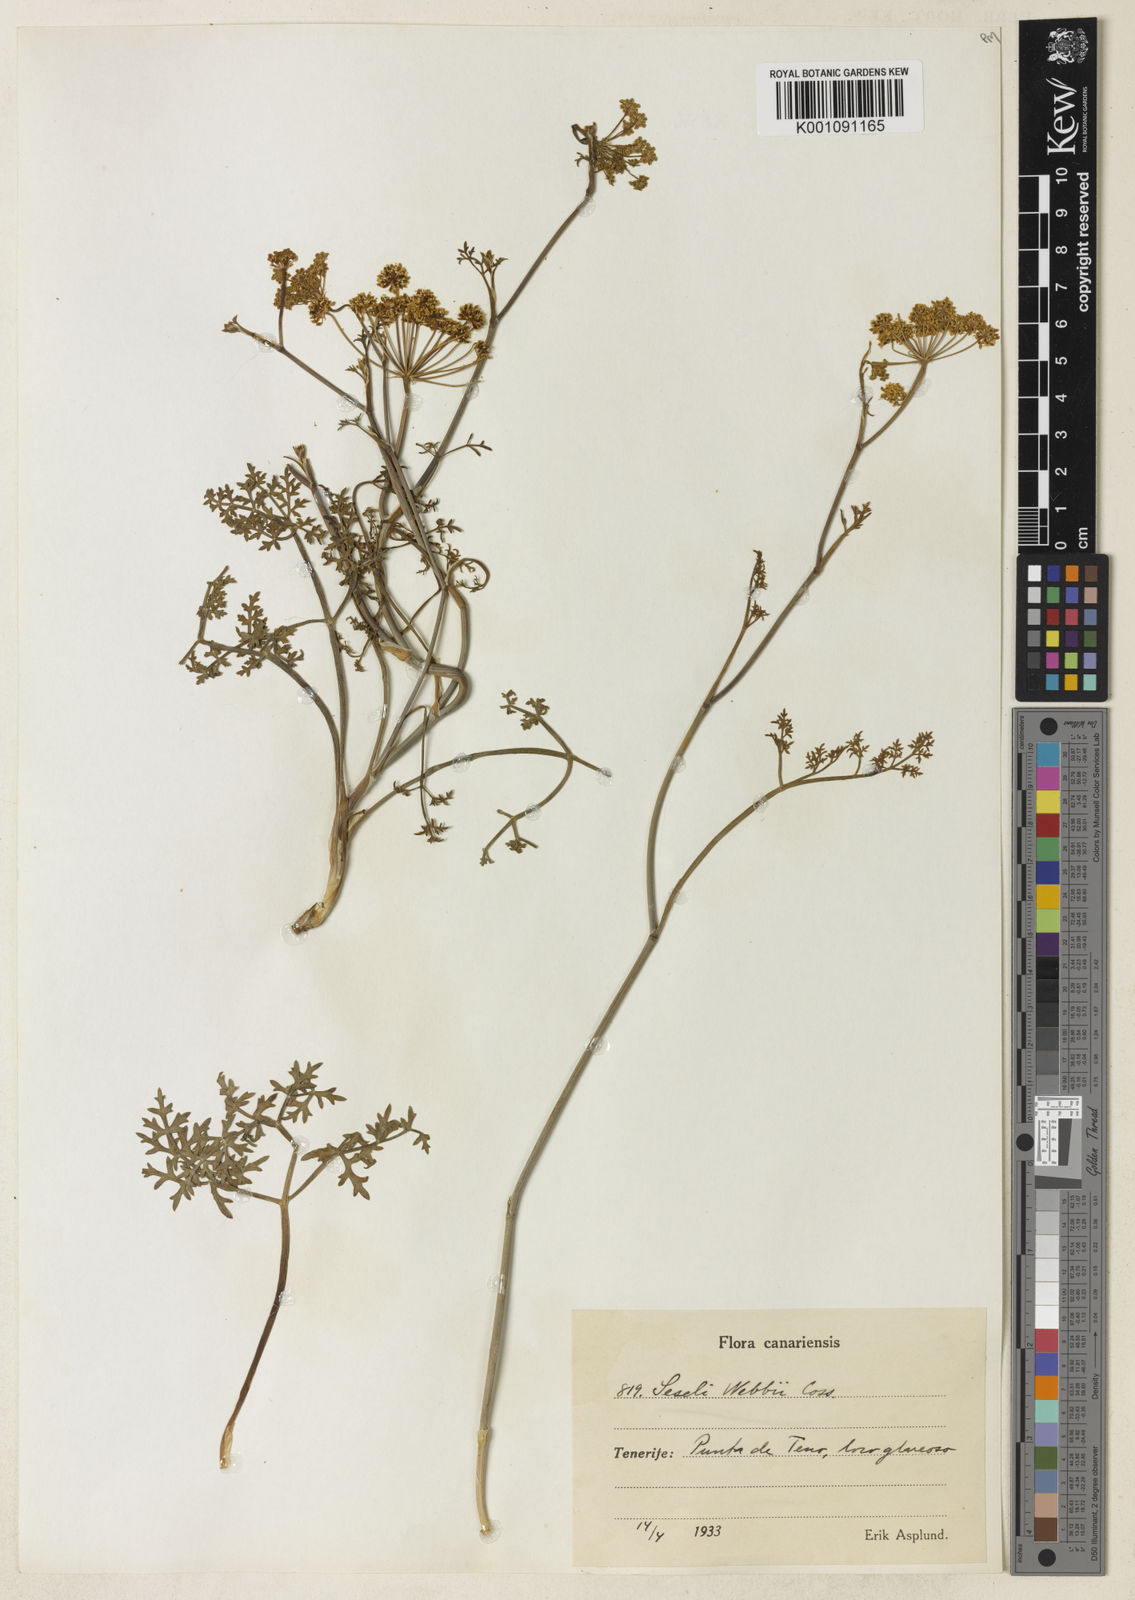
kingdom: Plantae
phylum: Tracheophyta
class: Magnoliopsida
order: Apiales
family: Apiaceae
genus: Rutheopsis
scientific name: Rutheopsis tortuosa
